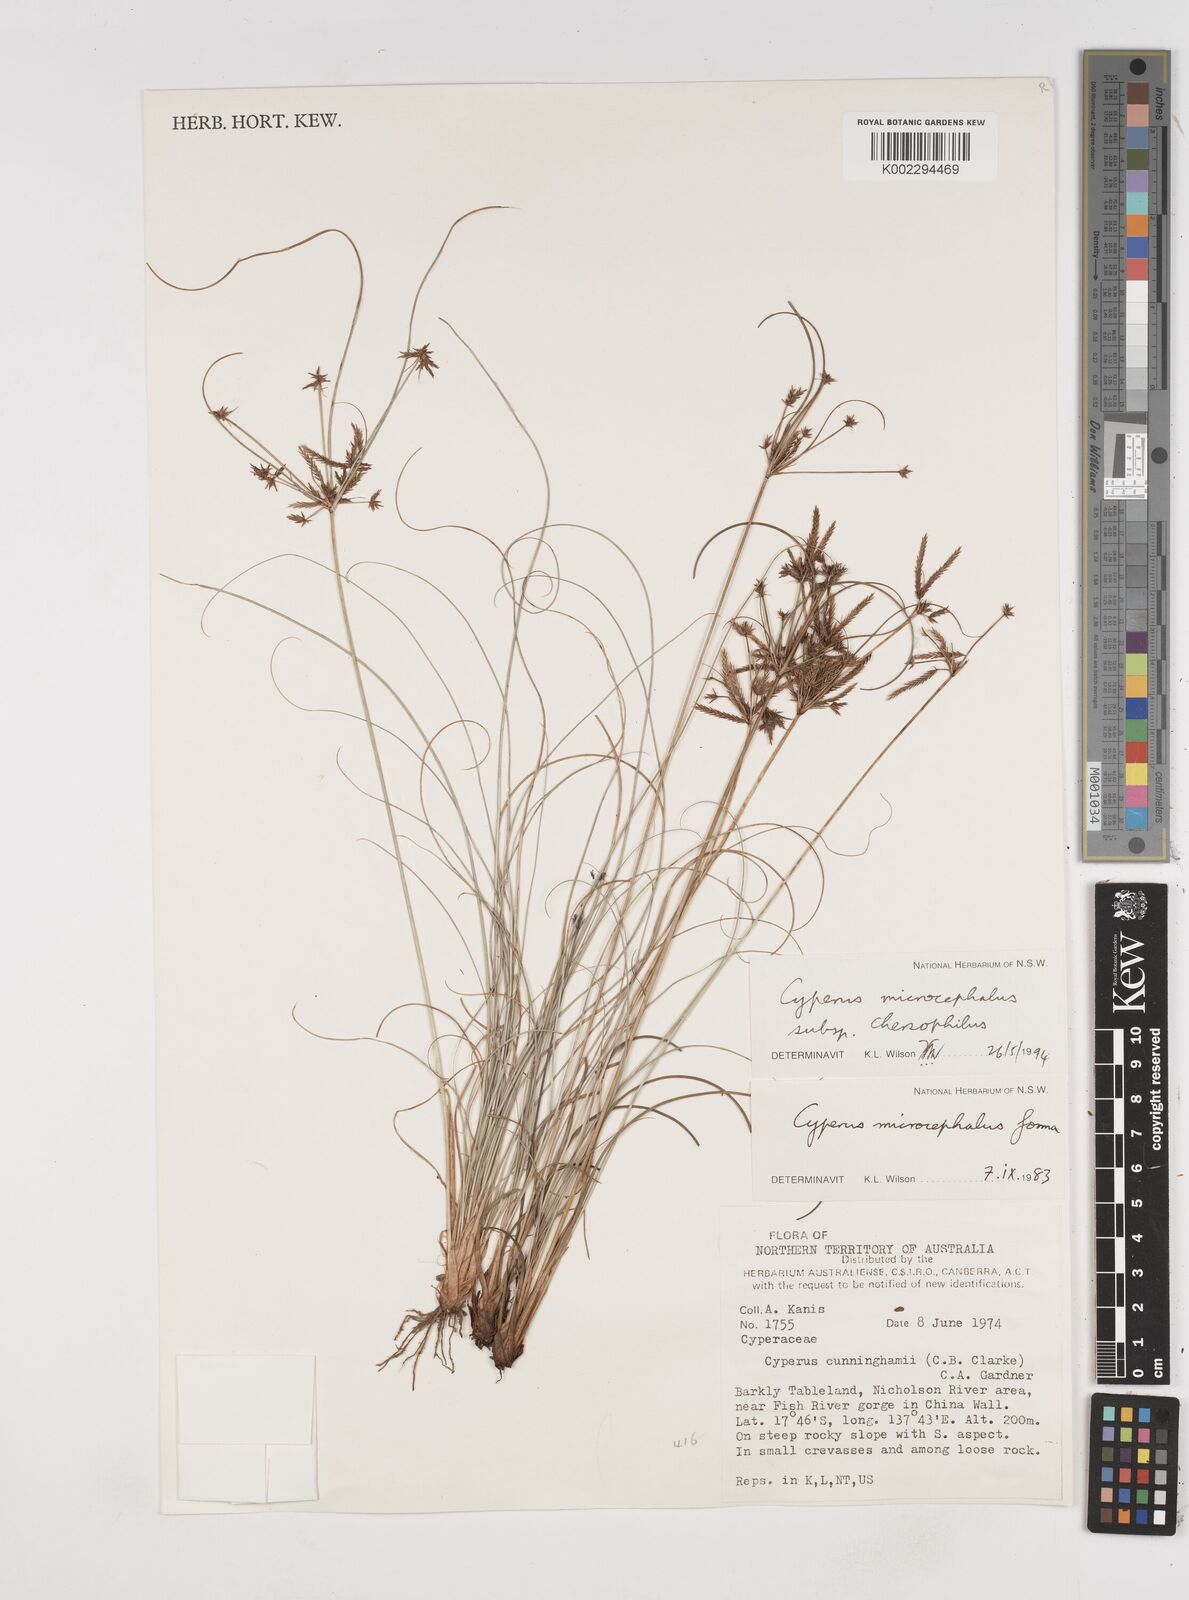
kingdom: Plantae
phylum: Tracheophyta
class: Liliopsida
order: Poales
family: Cyperaceae
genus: Cyperus
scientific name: Cyperus microcephalus
